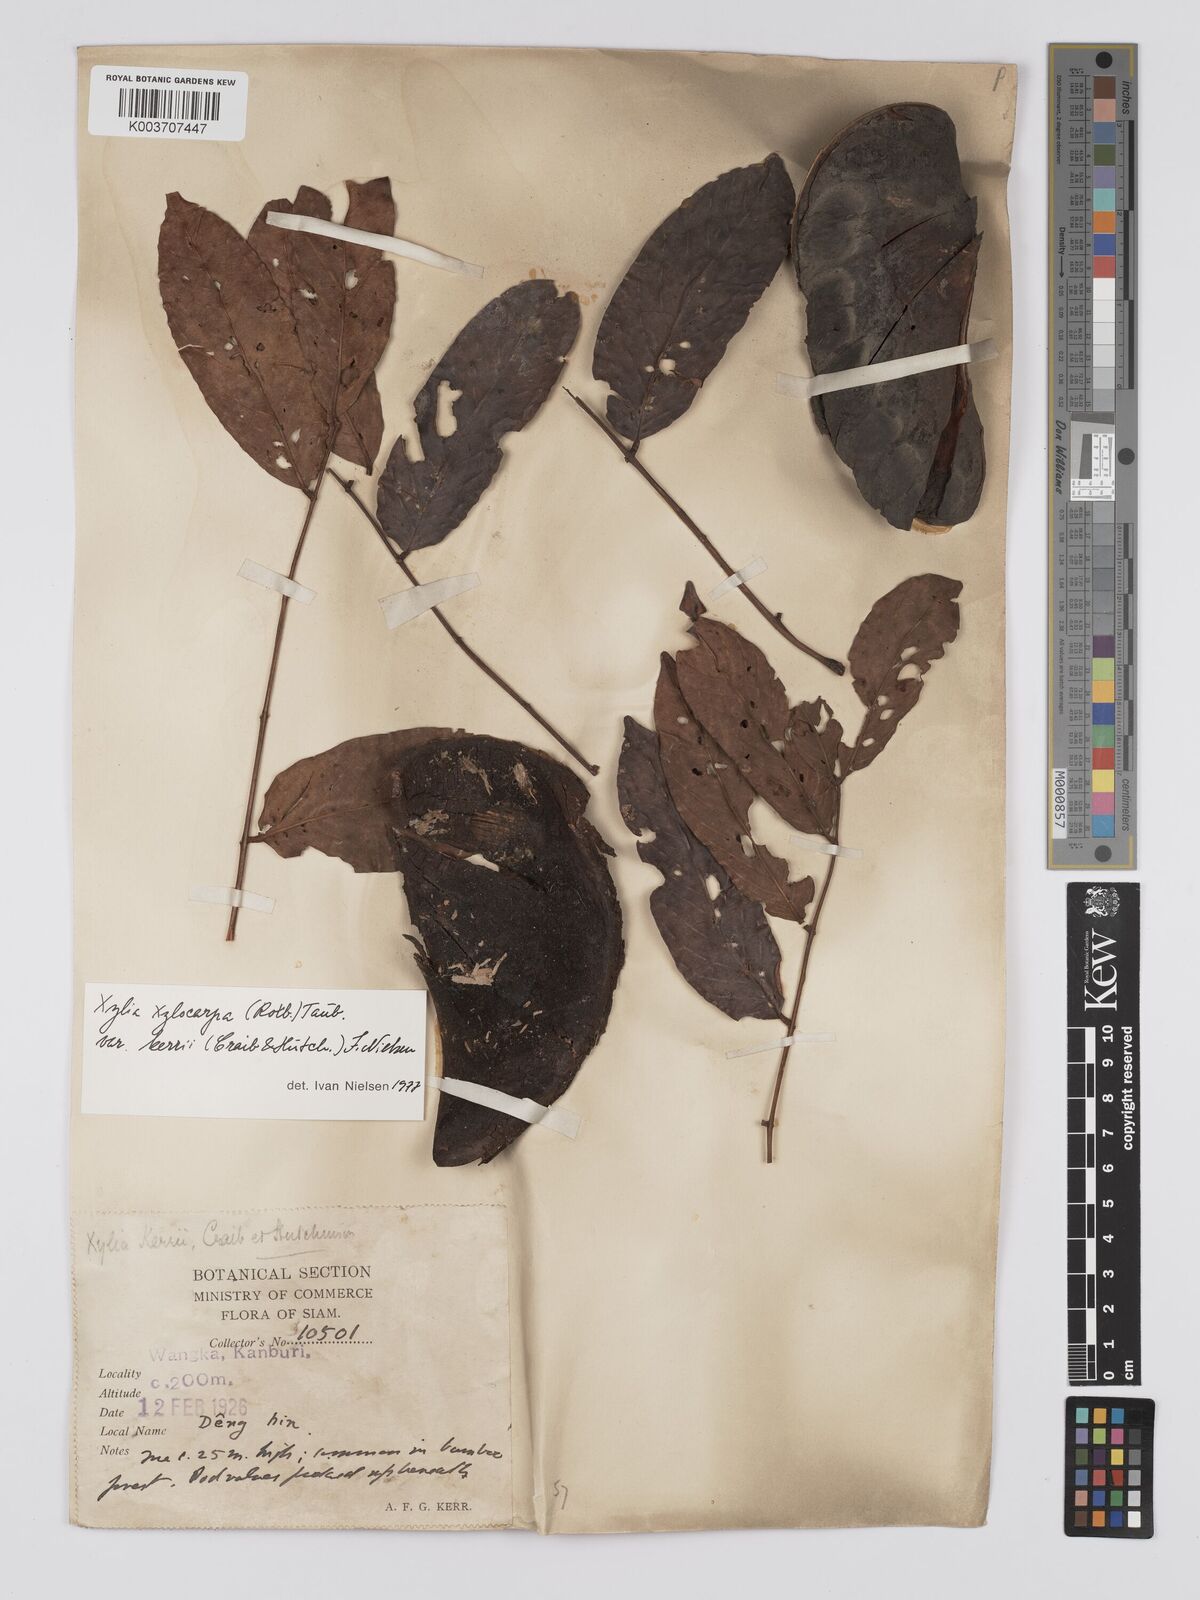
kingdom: Plantae
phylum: Tracheophyta
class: Magnoliopsida
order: Fabales
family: Fabaceae
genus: Xylia
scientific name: Xylia xylocarpa
